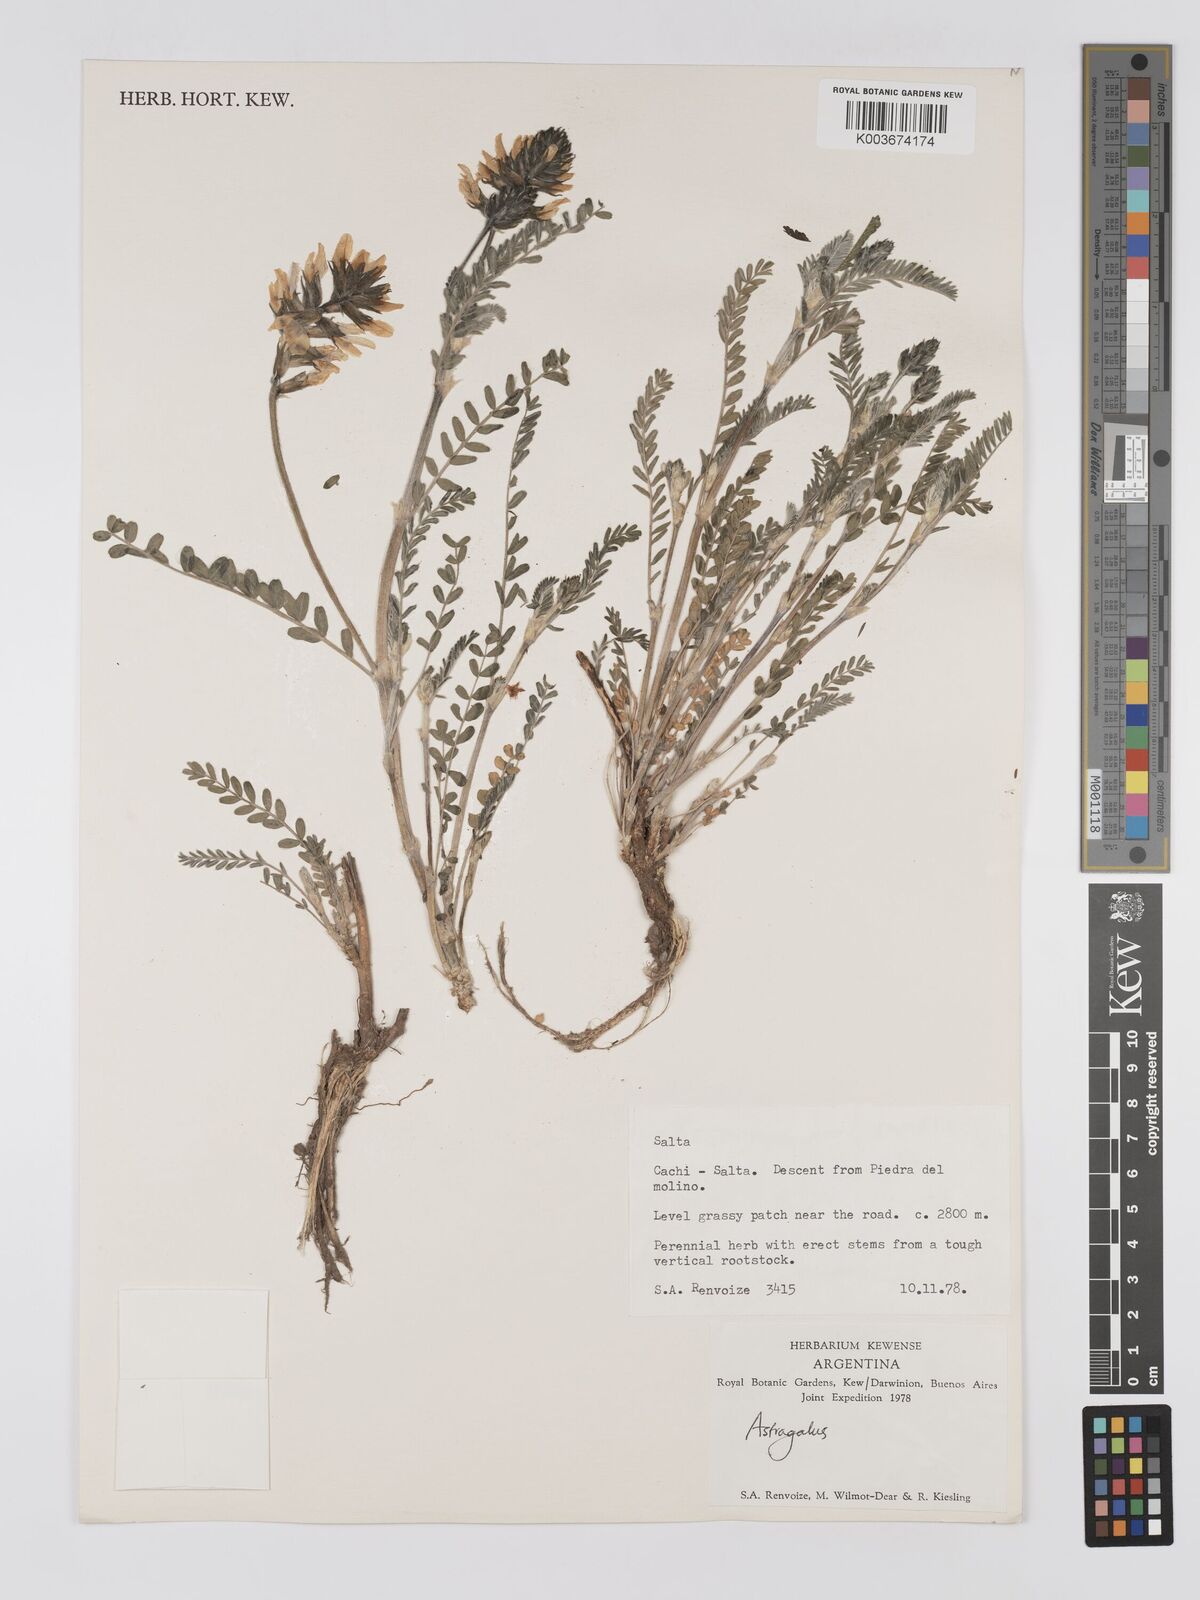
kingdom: Plantae
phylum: Tracheophyta
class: Magnoliopsida
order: Fabales
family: Fabaceae
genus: Astragalus
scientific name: Astragalus
